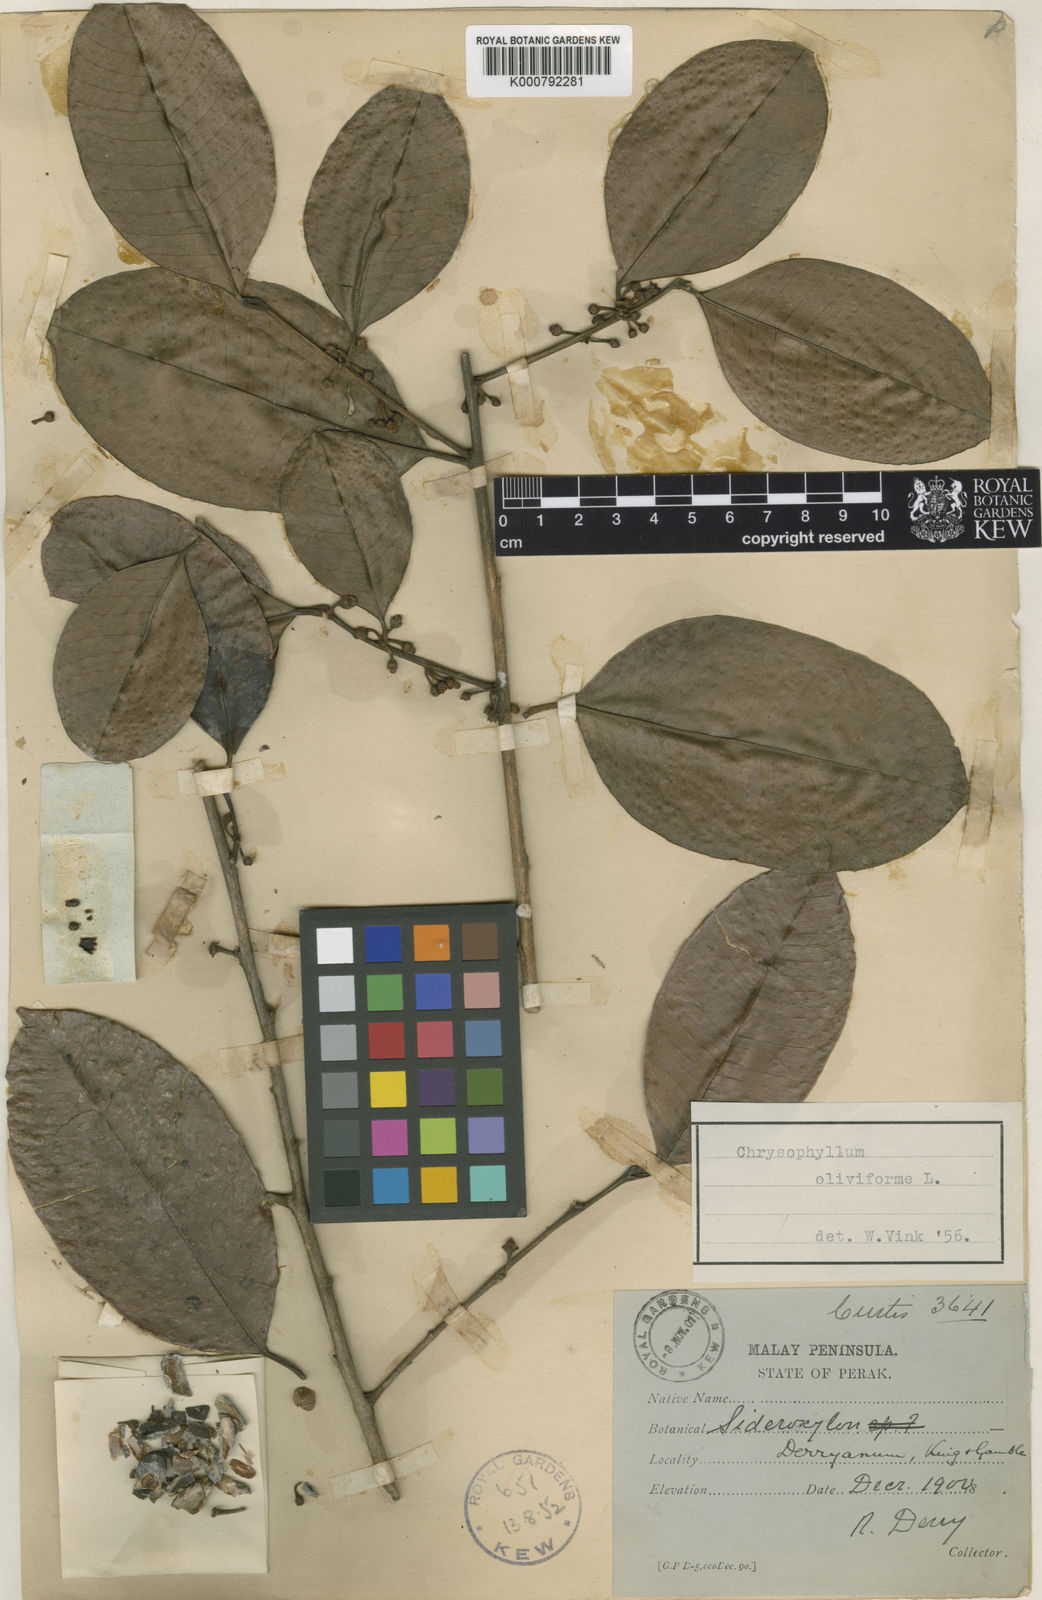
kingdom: Plantae
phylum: Tracheophyta
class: Magnoliopsida
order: Ericales
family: Sapotaceae
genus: Chrysophyllum
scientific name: Chrysophyllum oliviforme
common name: Satinleaf
